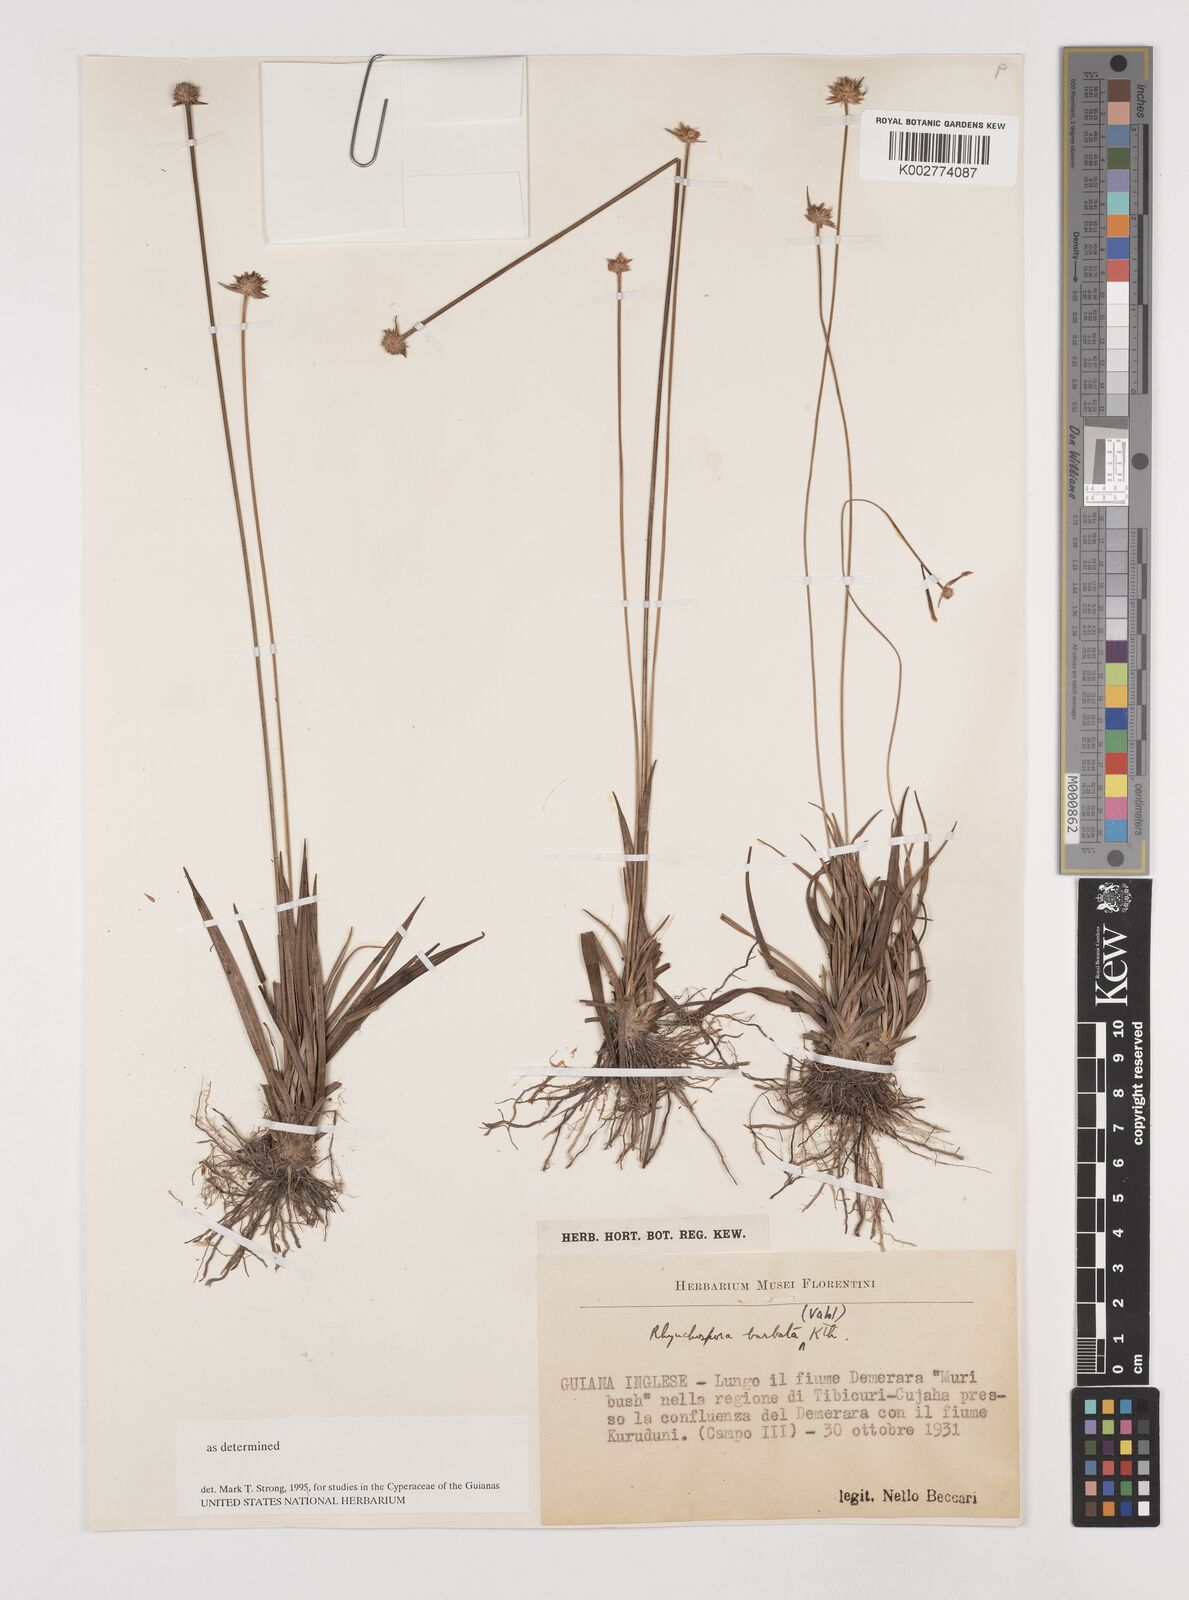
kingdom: Plantae
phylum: Tracheophyta
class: Liliopsida
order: Poales
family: Cyperaceae
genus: Rhynchospora
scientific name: Rhynchospora barbata
